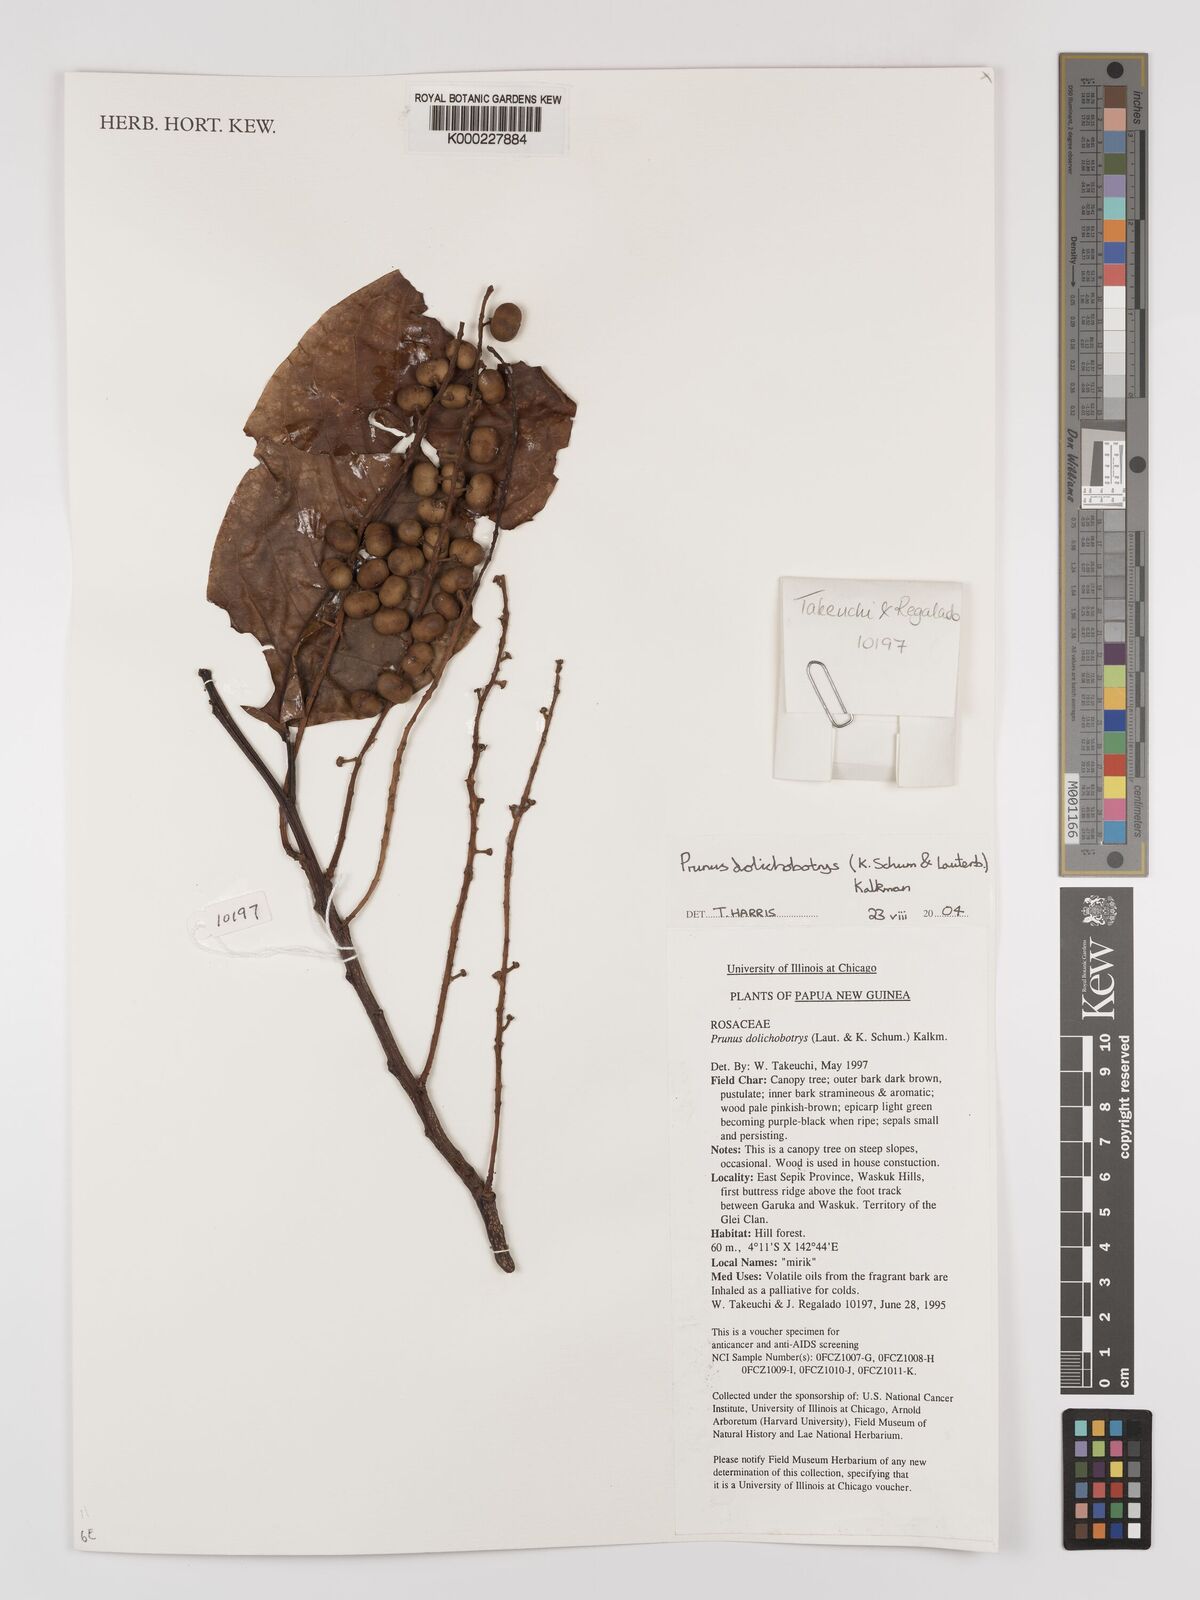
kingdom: Plantae
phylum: Tracheophyta
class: Magnoliopsida
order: Rosales
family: Rosaceae
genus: Prunus
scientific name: Prunus dolichobotrys
